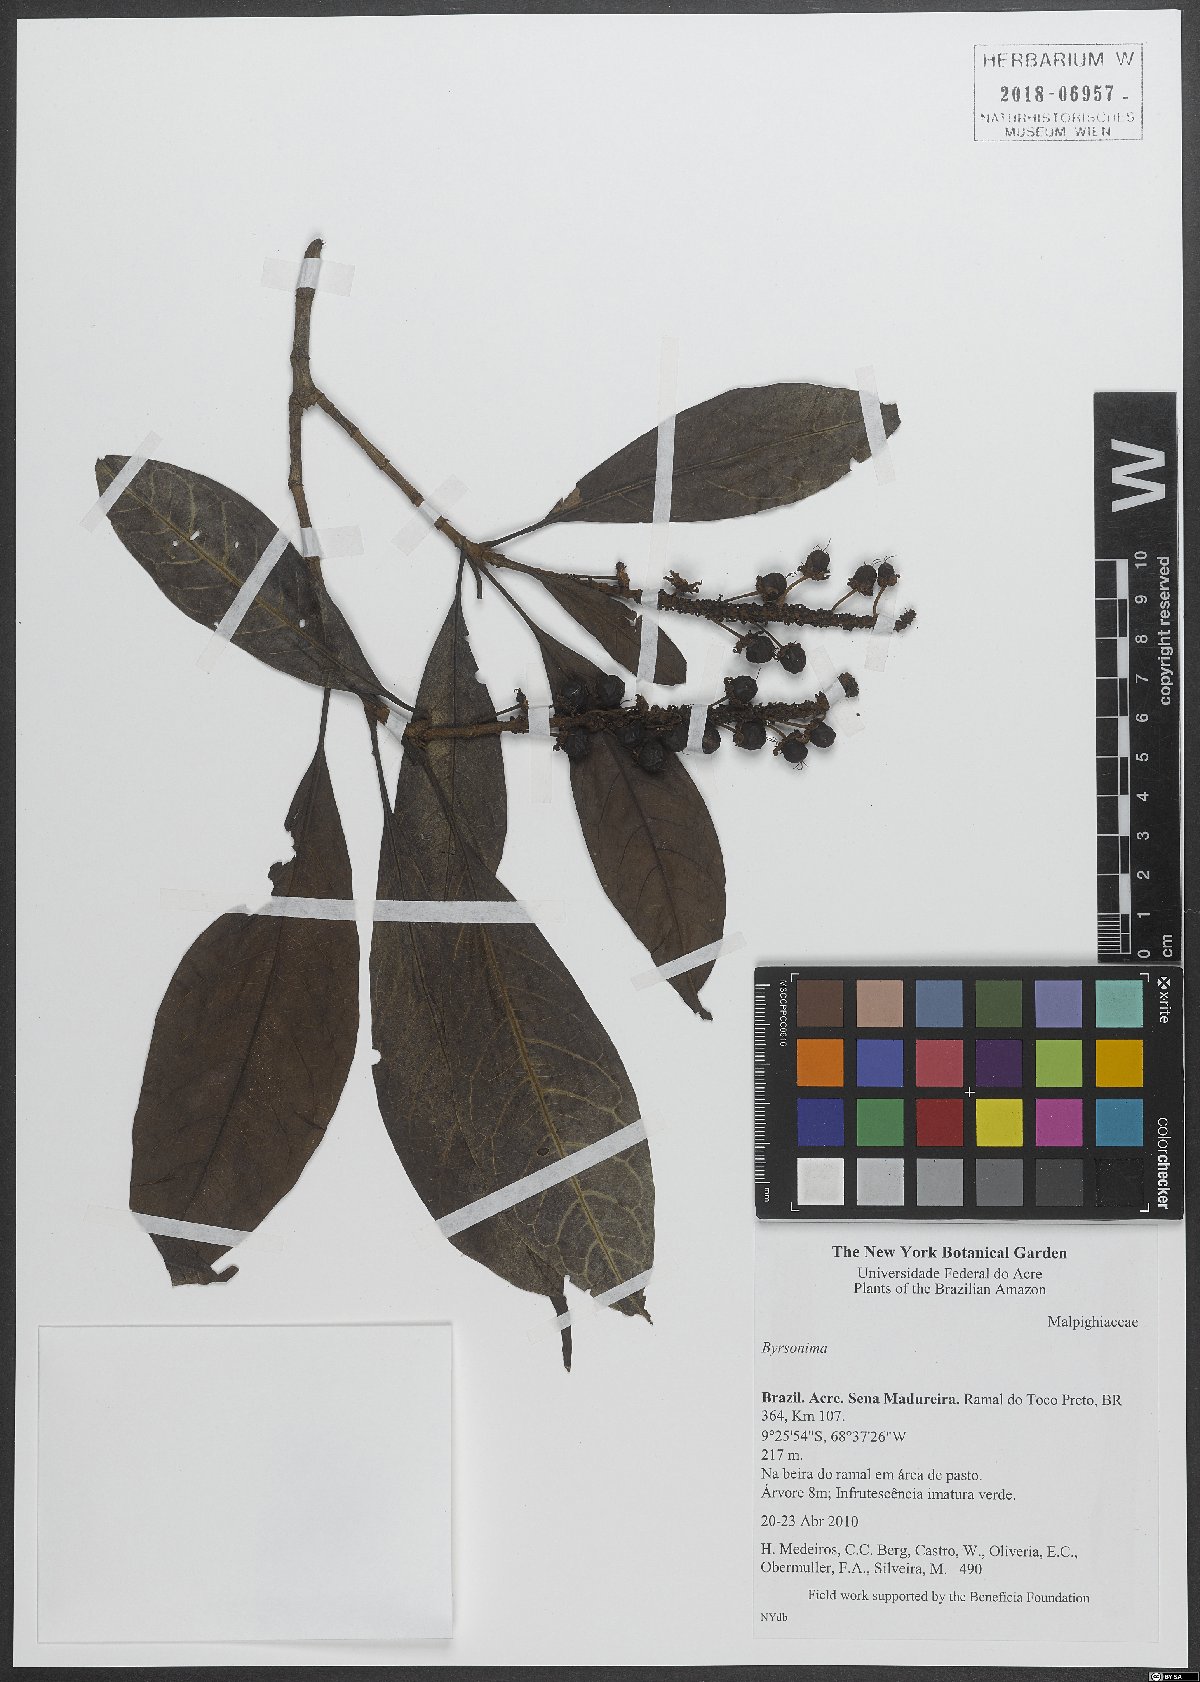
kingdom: Plantae
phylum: Tracheophyta
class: Magnoliopsida
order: Malpighiales
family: Malpighiaceae
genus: Byrsonima
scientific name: Byrsonima
